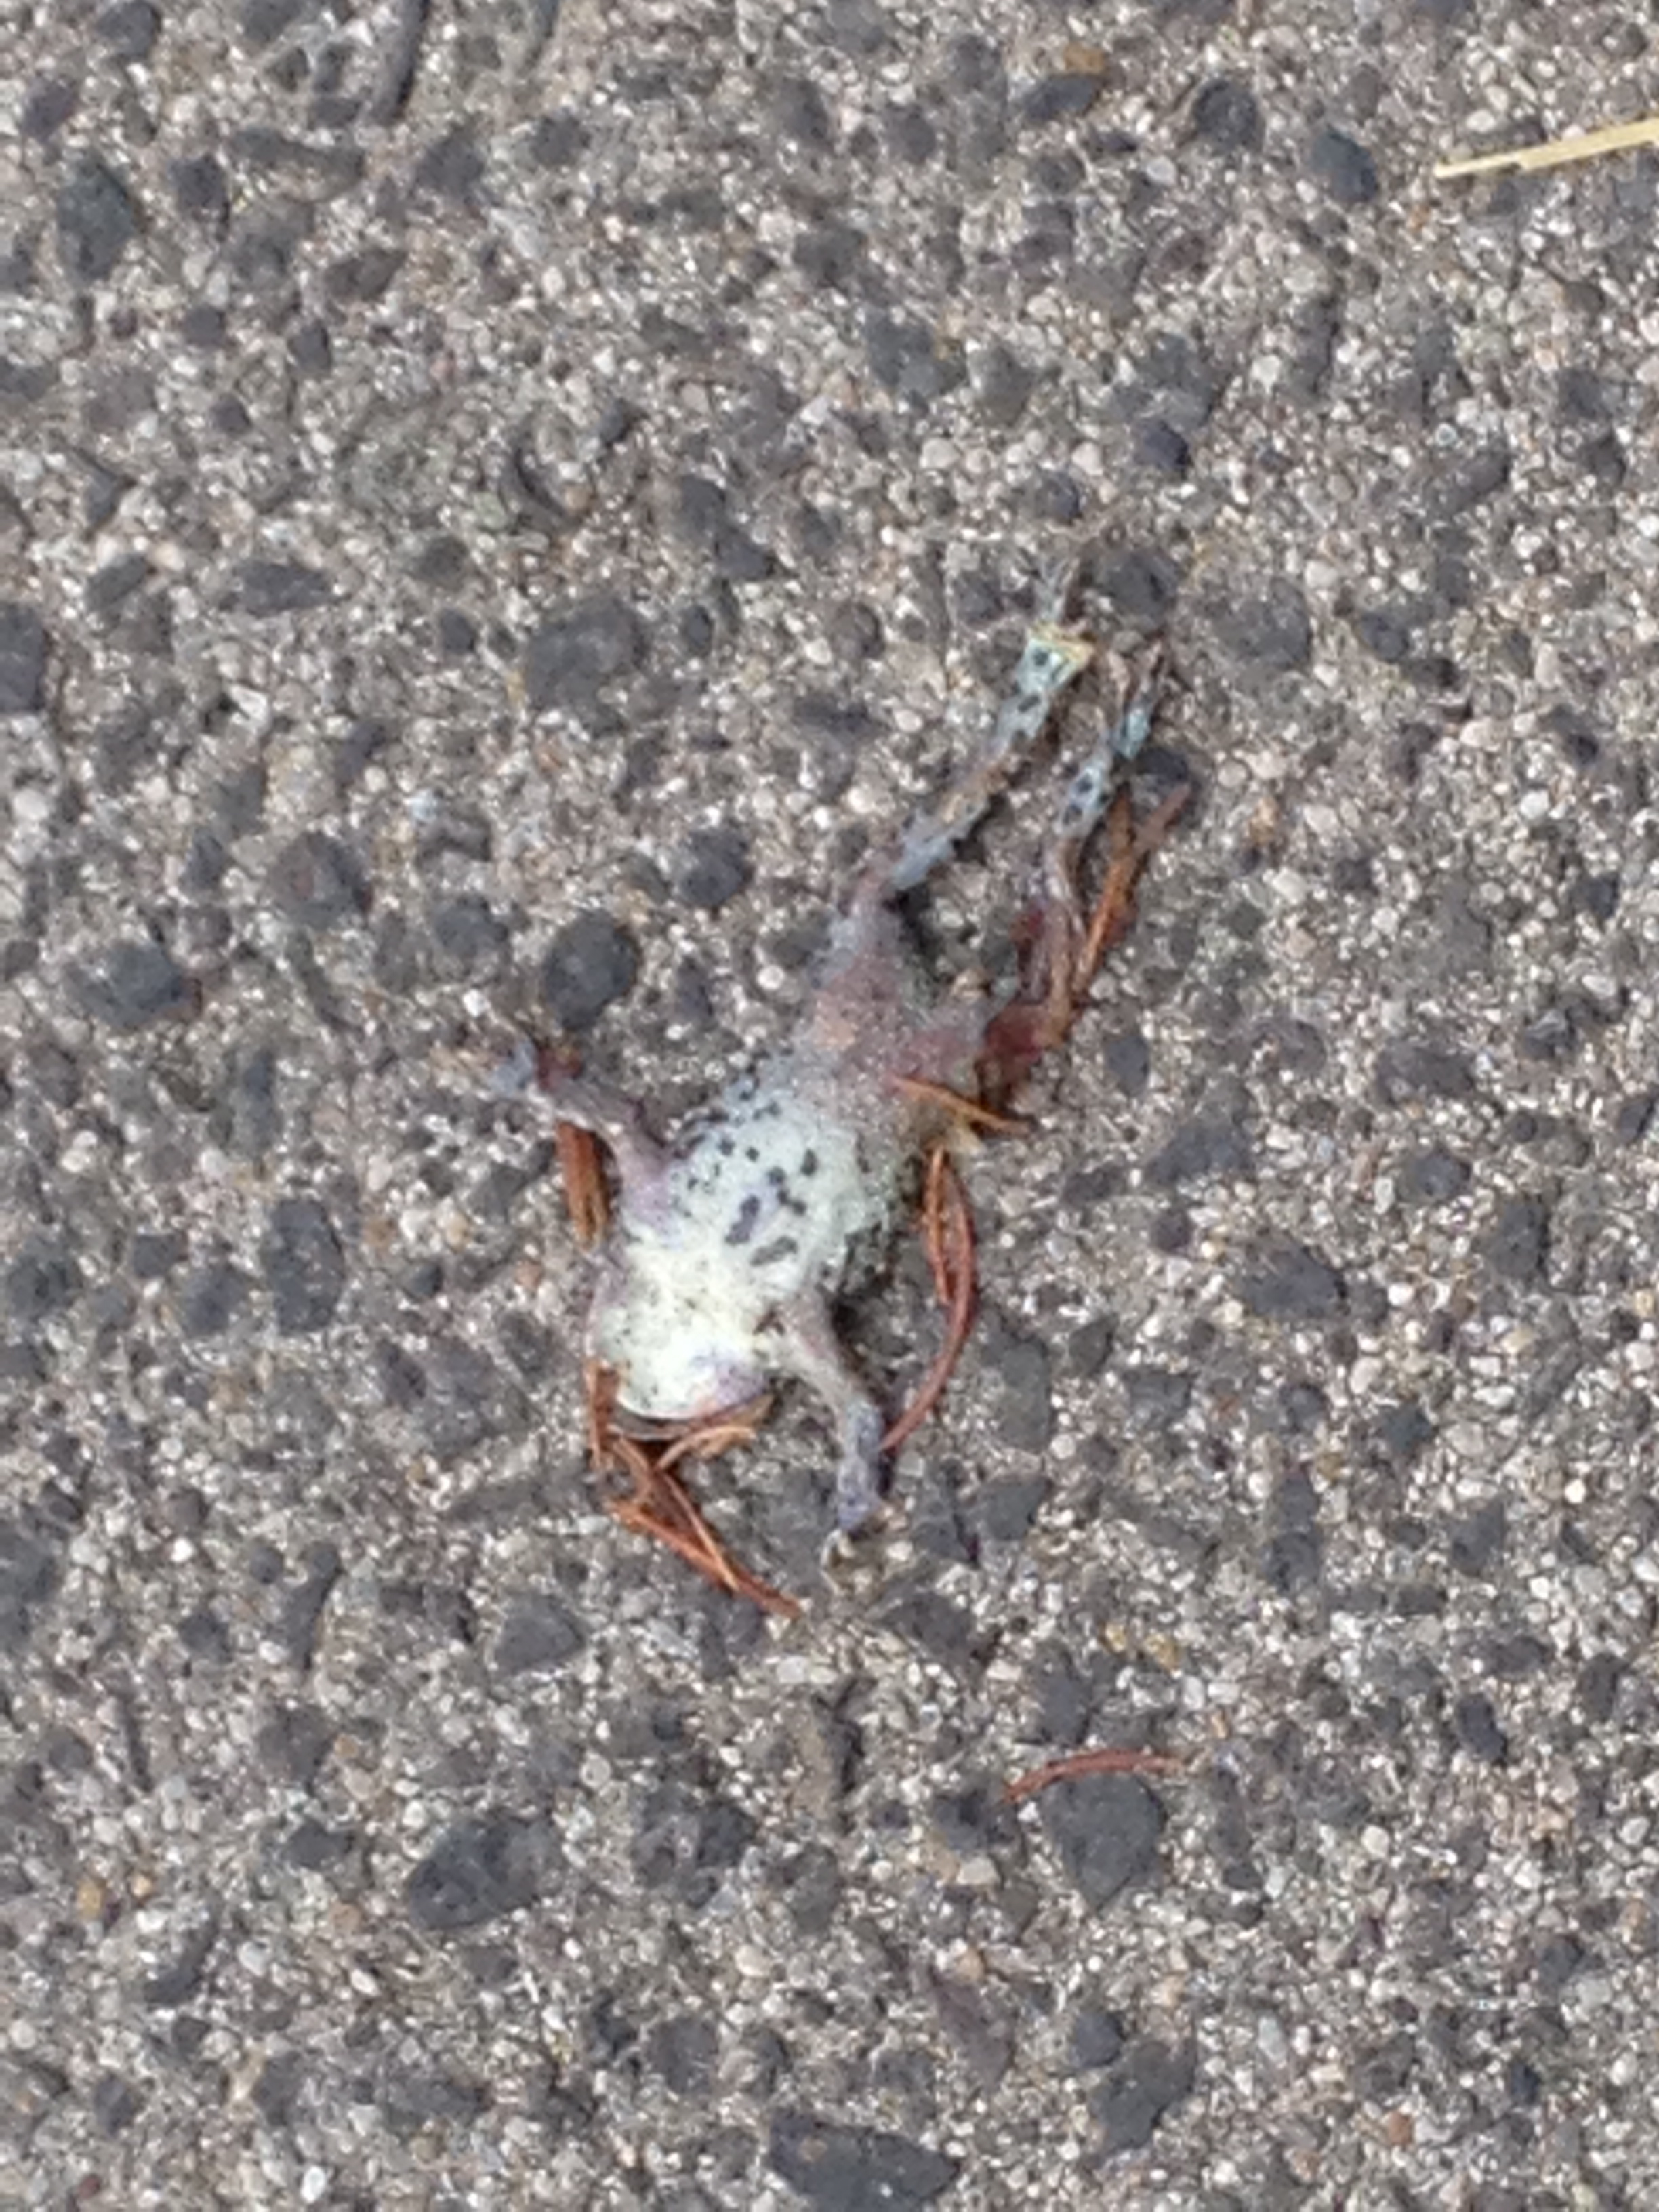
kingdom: Animalia
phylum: Chordata
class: Amphibia
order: Anura
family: Bufonidae
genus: Bufotes
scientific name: Bufotes viridis
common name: European green toad
